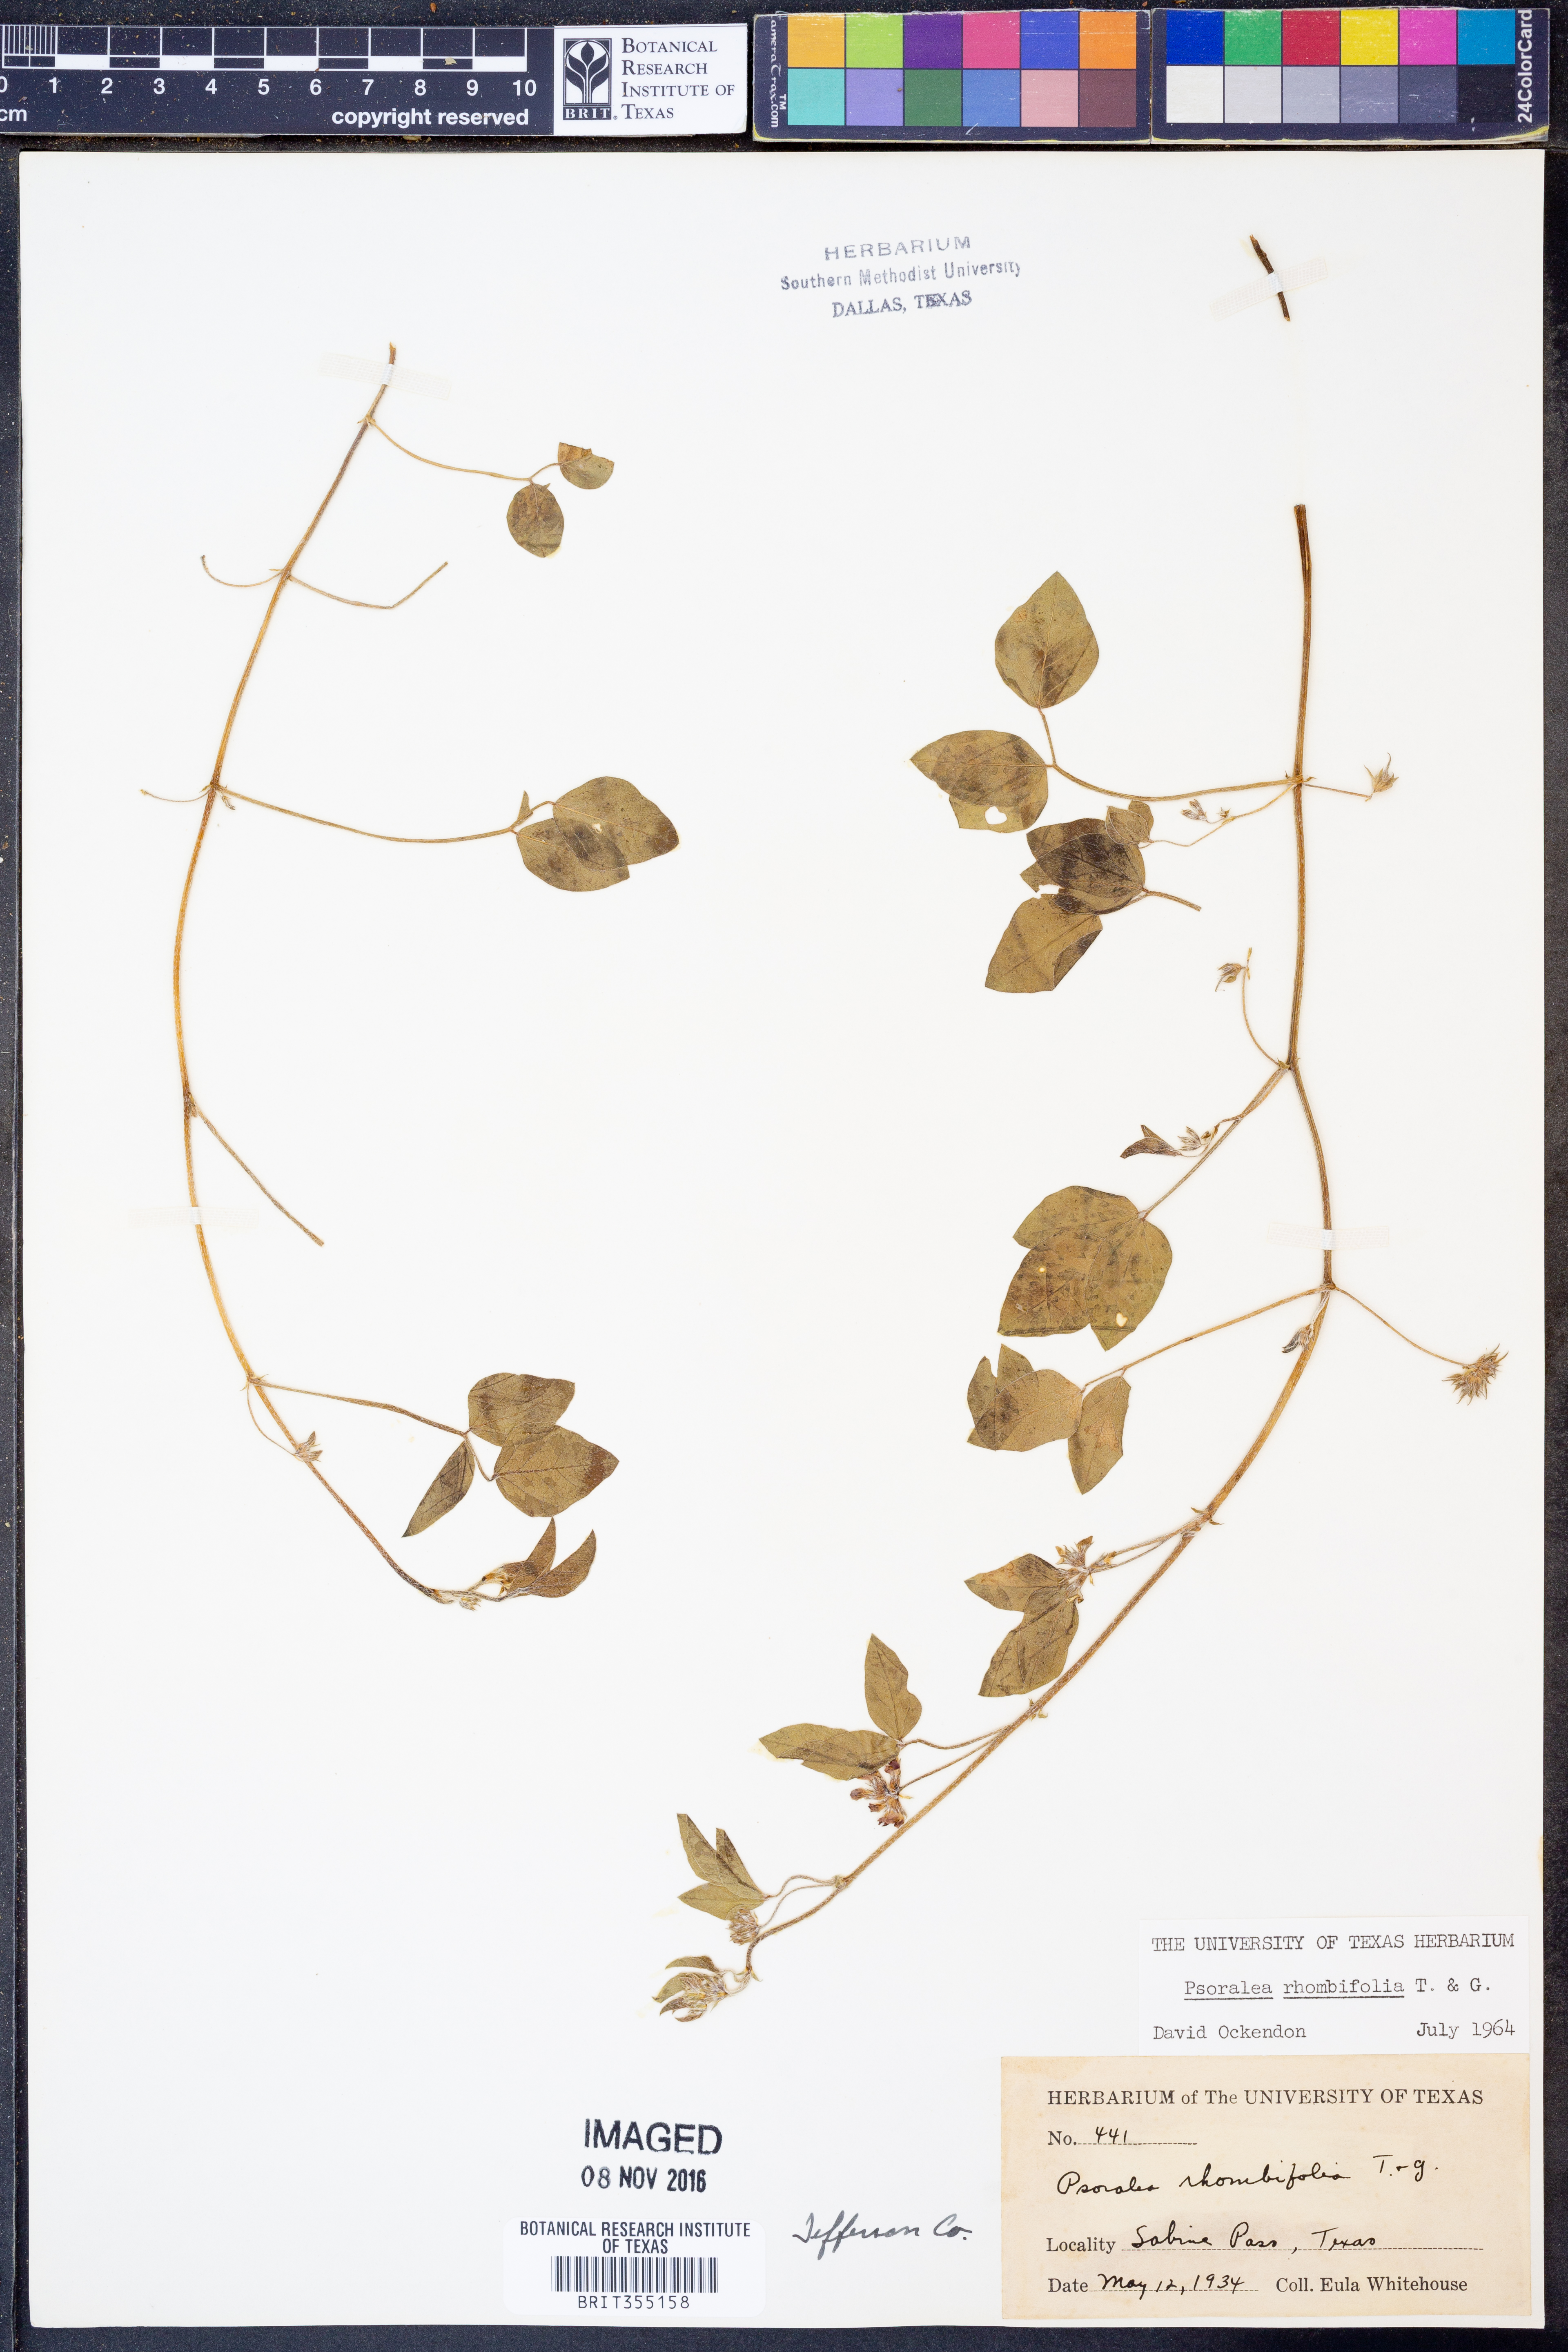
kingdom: Plantae
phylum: Tracheophyta
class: Magnoliopsida
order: Fabales
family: Fabaceae
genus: Pediomelum
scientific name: Pediomelum rhombifolium
